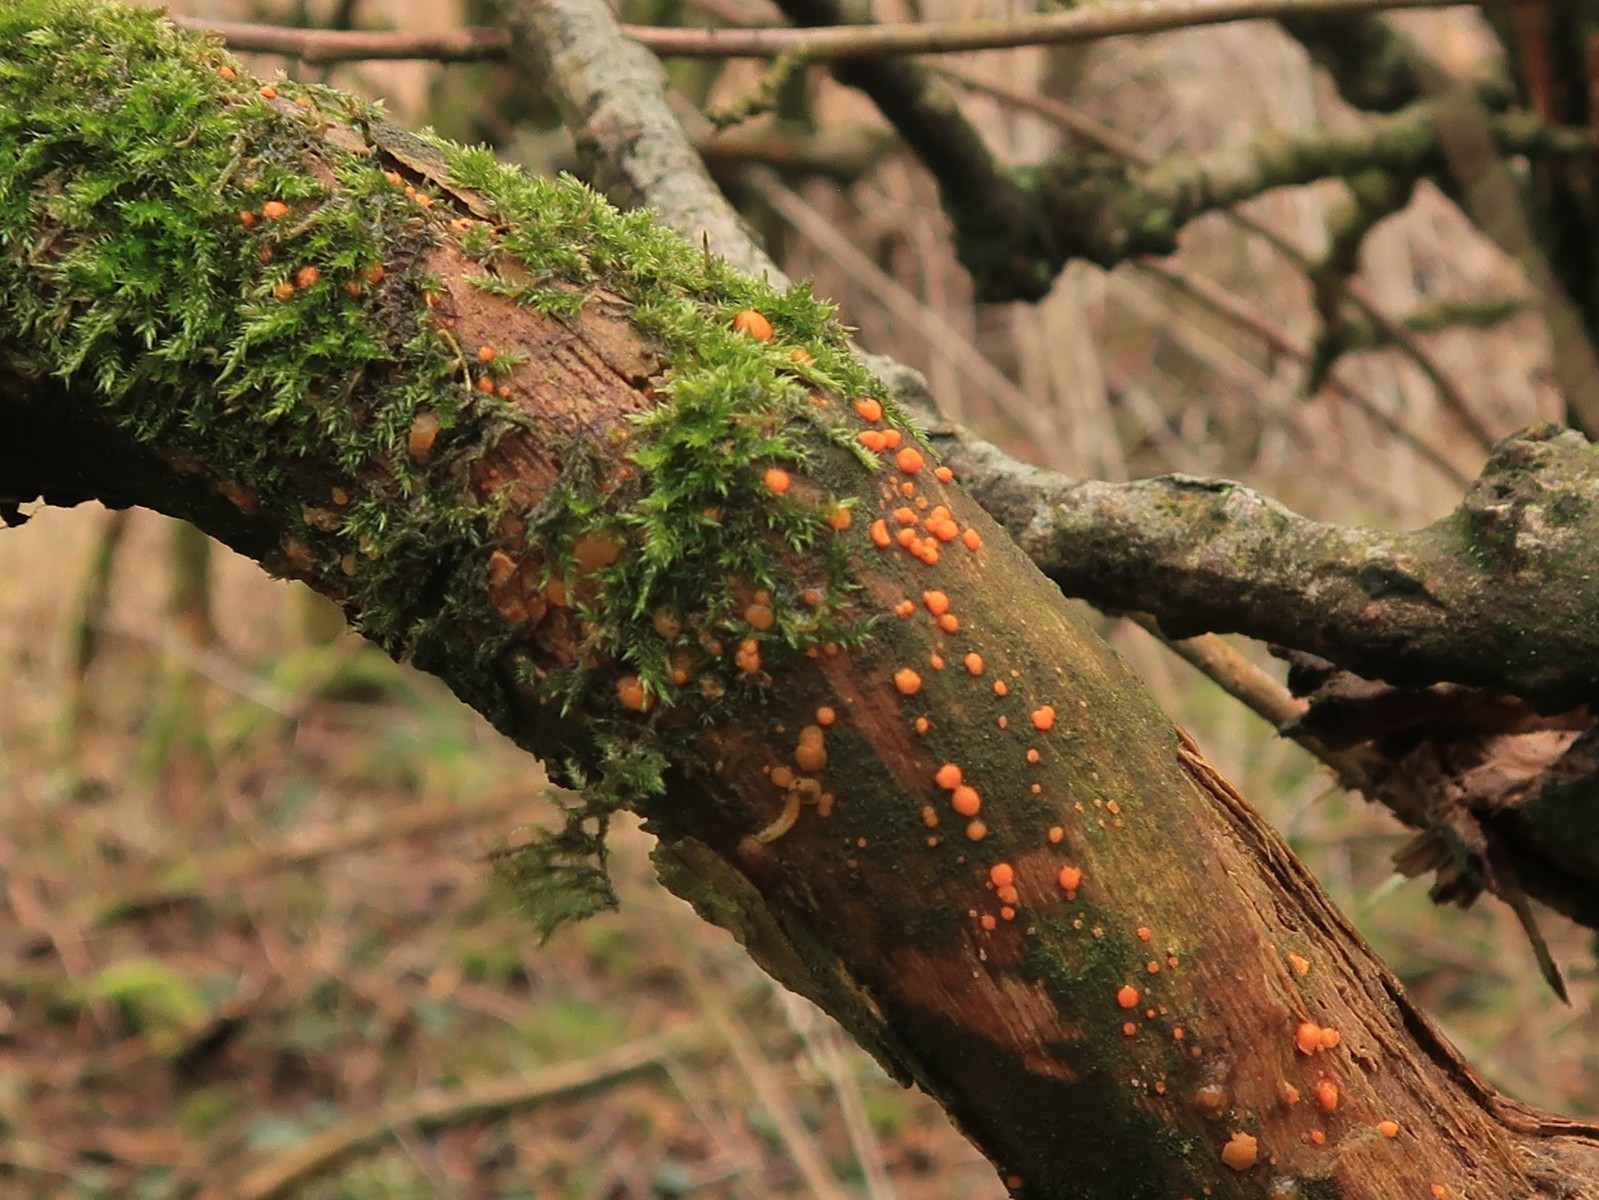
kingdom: Fungi
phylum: Basidiomycota
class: Dacrymycetes
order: Dacrymycetales
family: Dacrymycetaceae
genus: Dacrymyces
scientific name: Dacrymyces stillatus
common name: almindelig tåresvamp
